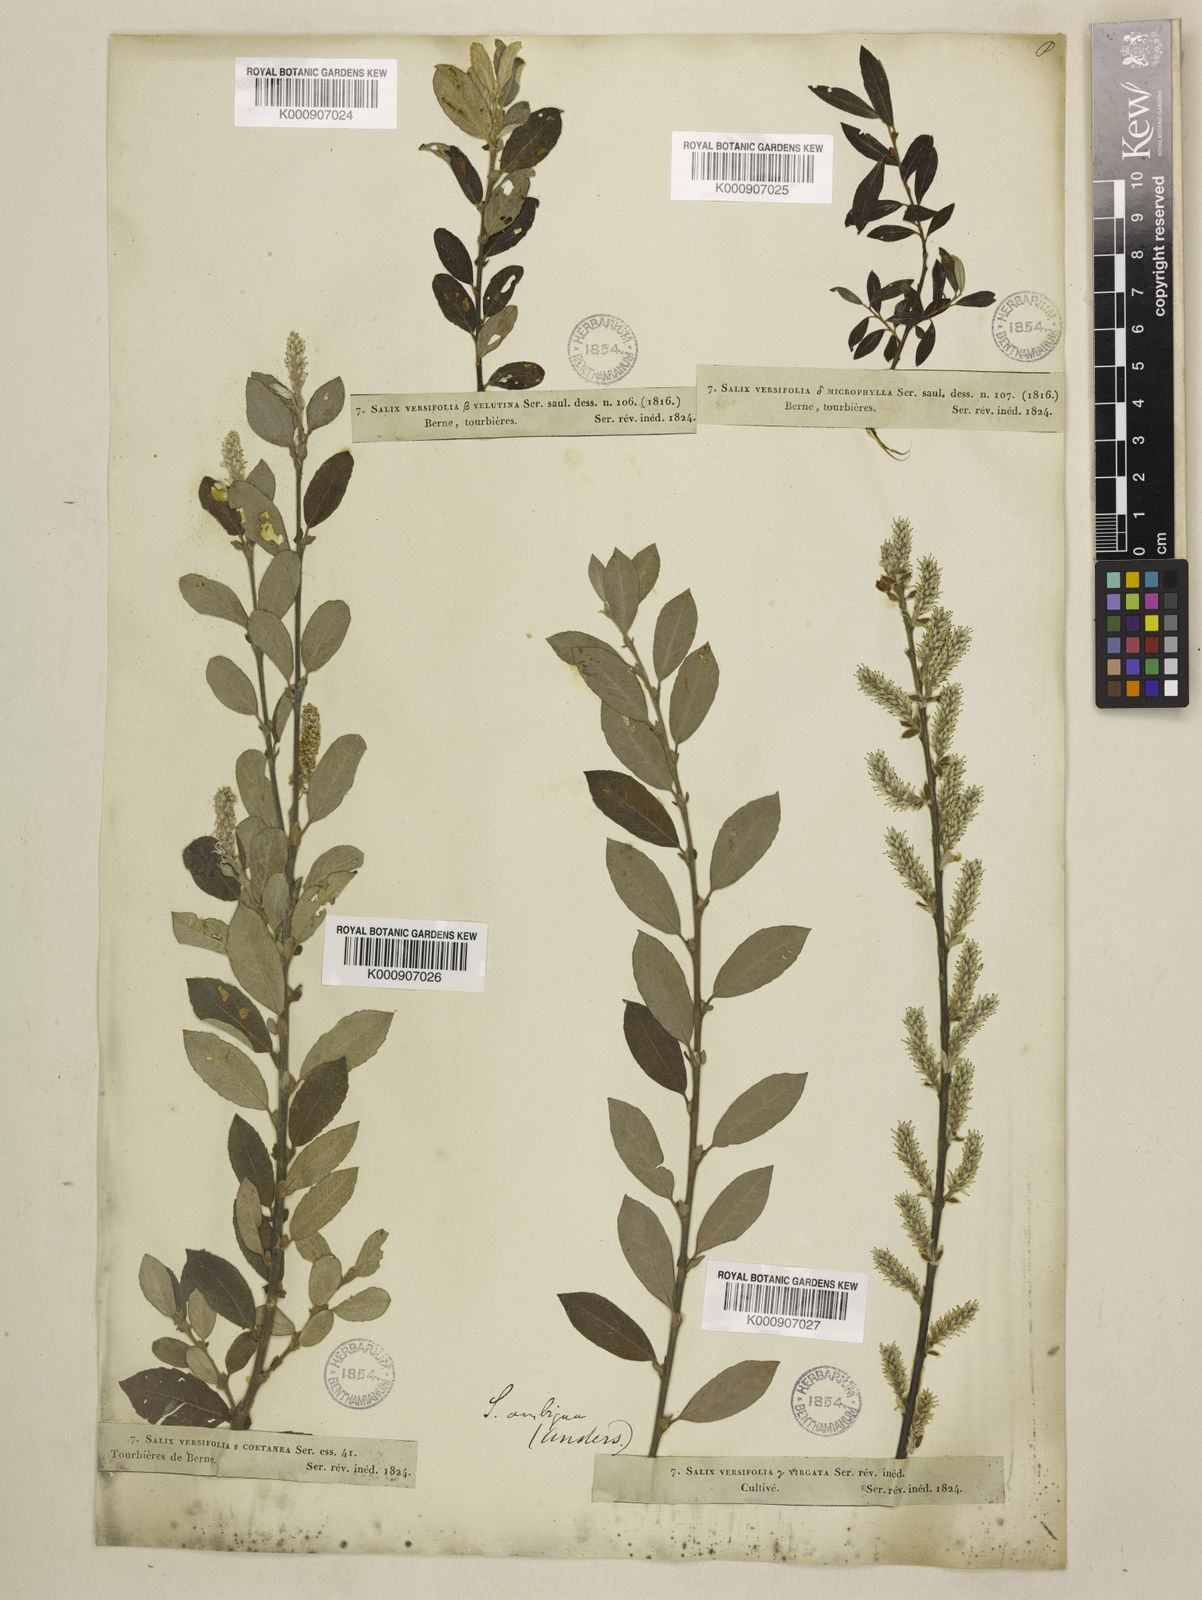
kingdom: Plantae
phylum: Tracheophyta
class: Magnoliopsida
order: Malpighiales
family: Salicaceae
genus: Salix
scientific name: Salix glauca
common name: Glaucous willow
